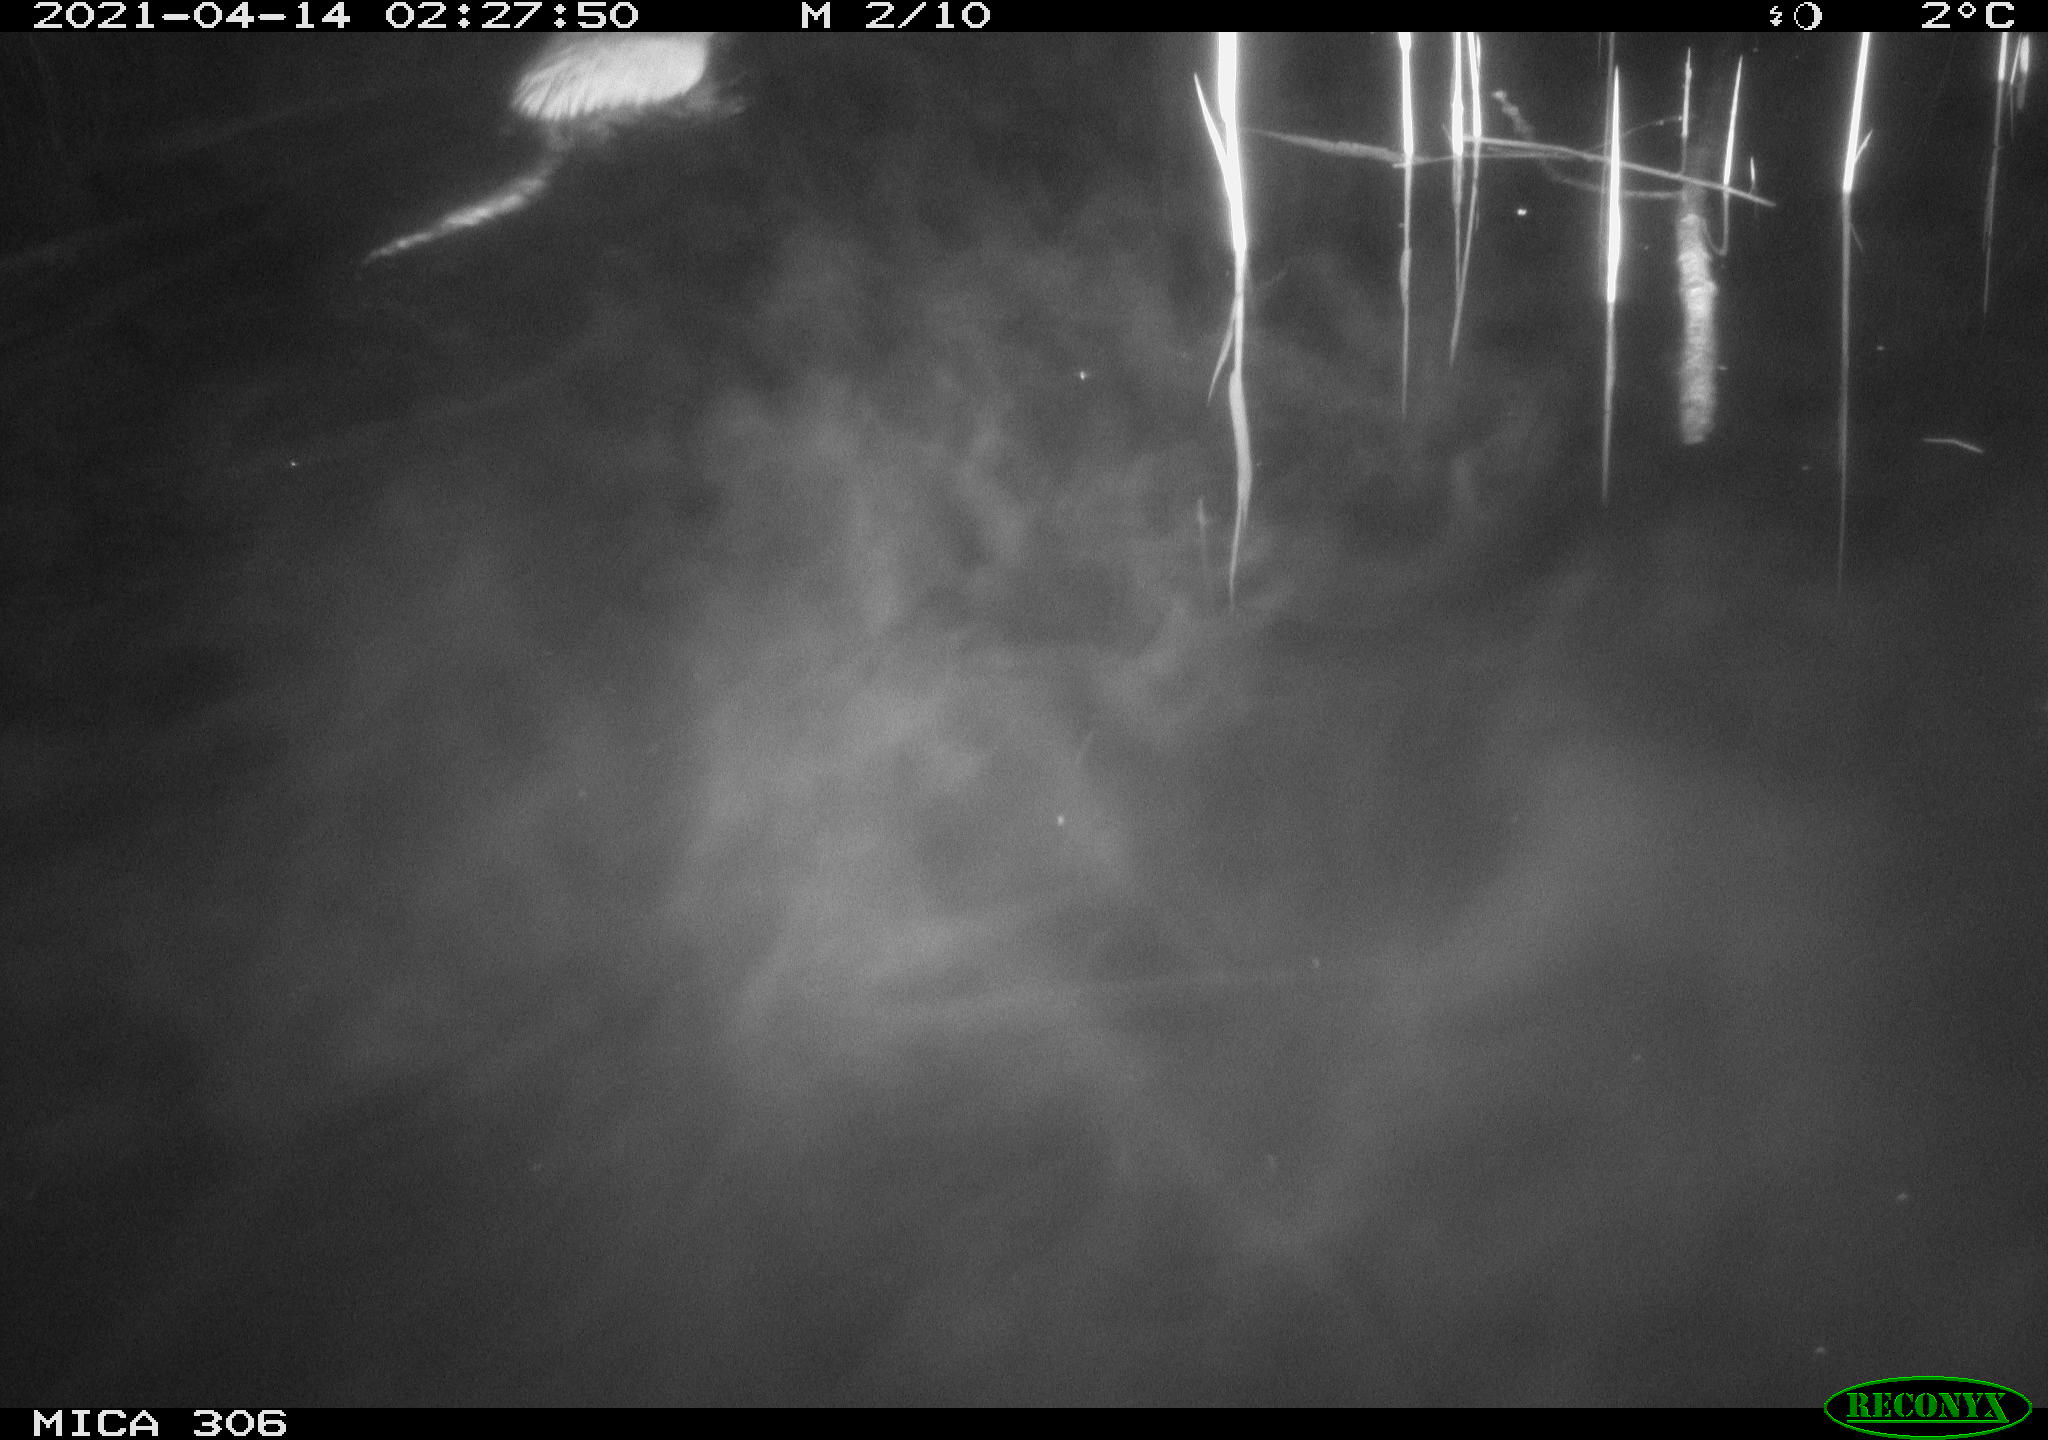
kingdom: Animalia
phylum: Chordata
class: Mammalia
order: Rodentia
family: Cricetidae
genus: Ondatra
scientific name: Ondatra zibethicus
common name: Muskrat
